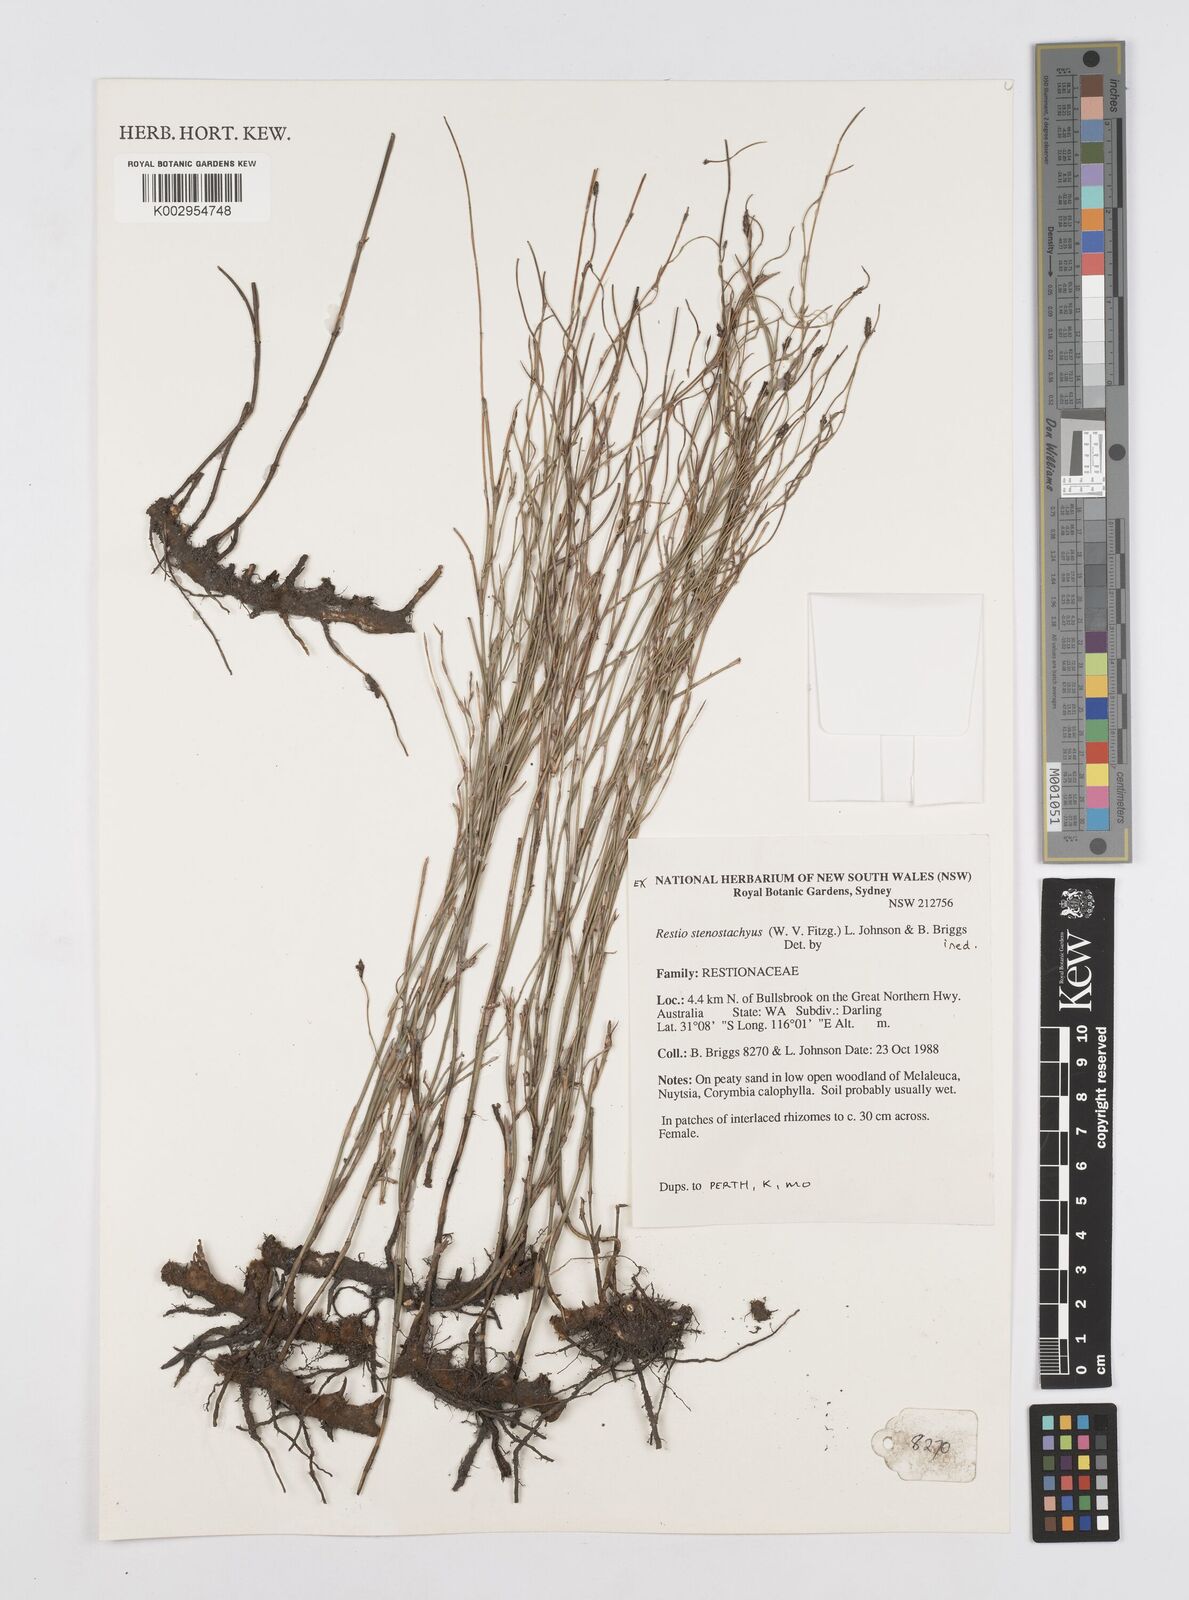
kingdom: Plantae
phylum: Tracheophyta
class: Liliopsida
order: Poales
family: Restionaceae
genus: Dielsia
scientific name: Dielsia stenostachya
